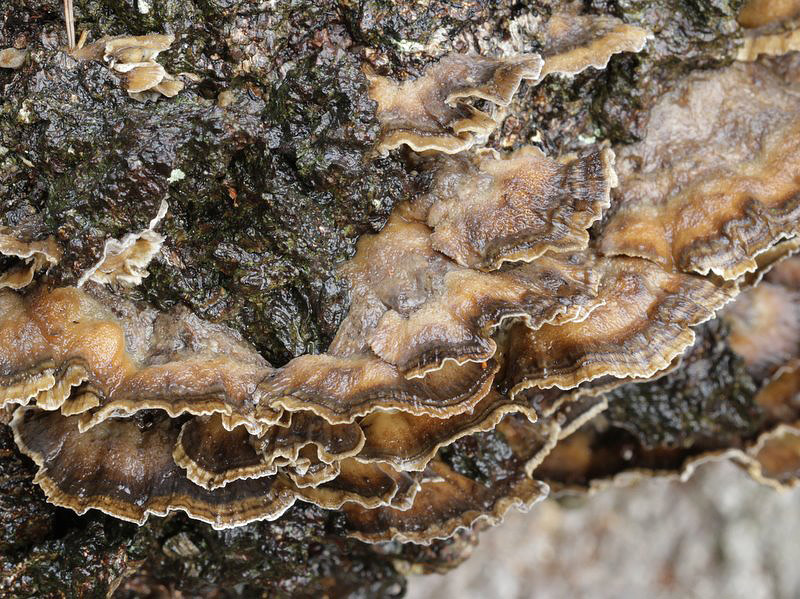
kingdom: Fungi
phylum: Basidiomycota
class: Agaricomycetes
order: Polyporales
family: Phanerochaetaceae
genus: Bjerkandera
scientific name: Bjerkandera adusta
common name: sveden sodporesvamp
